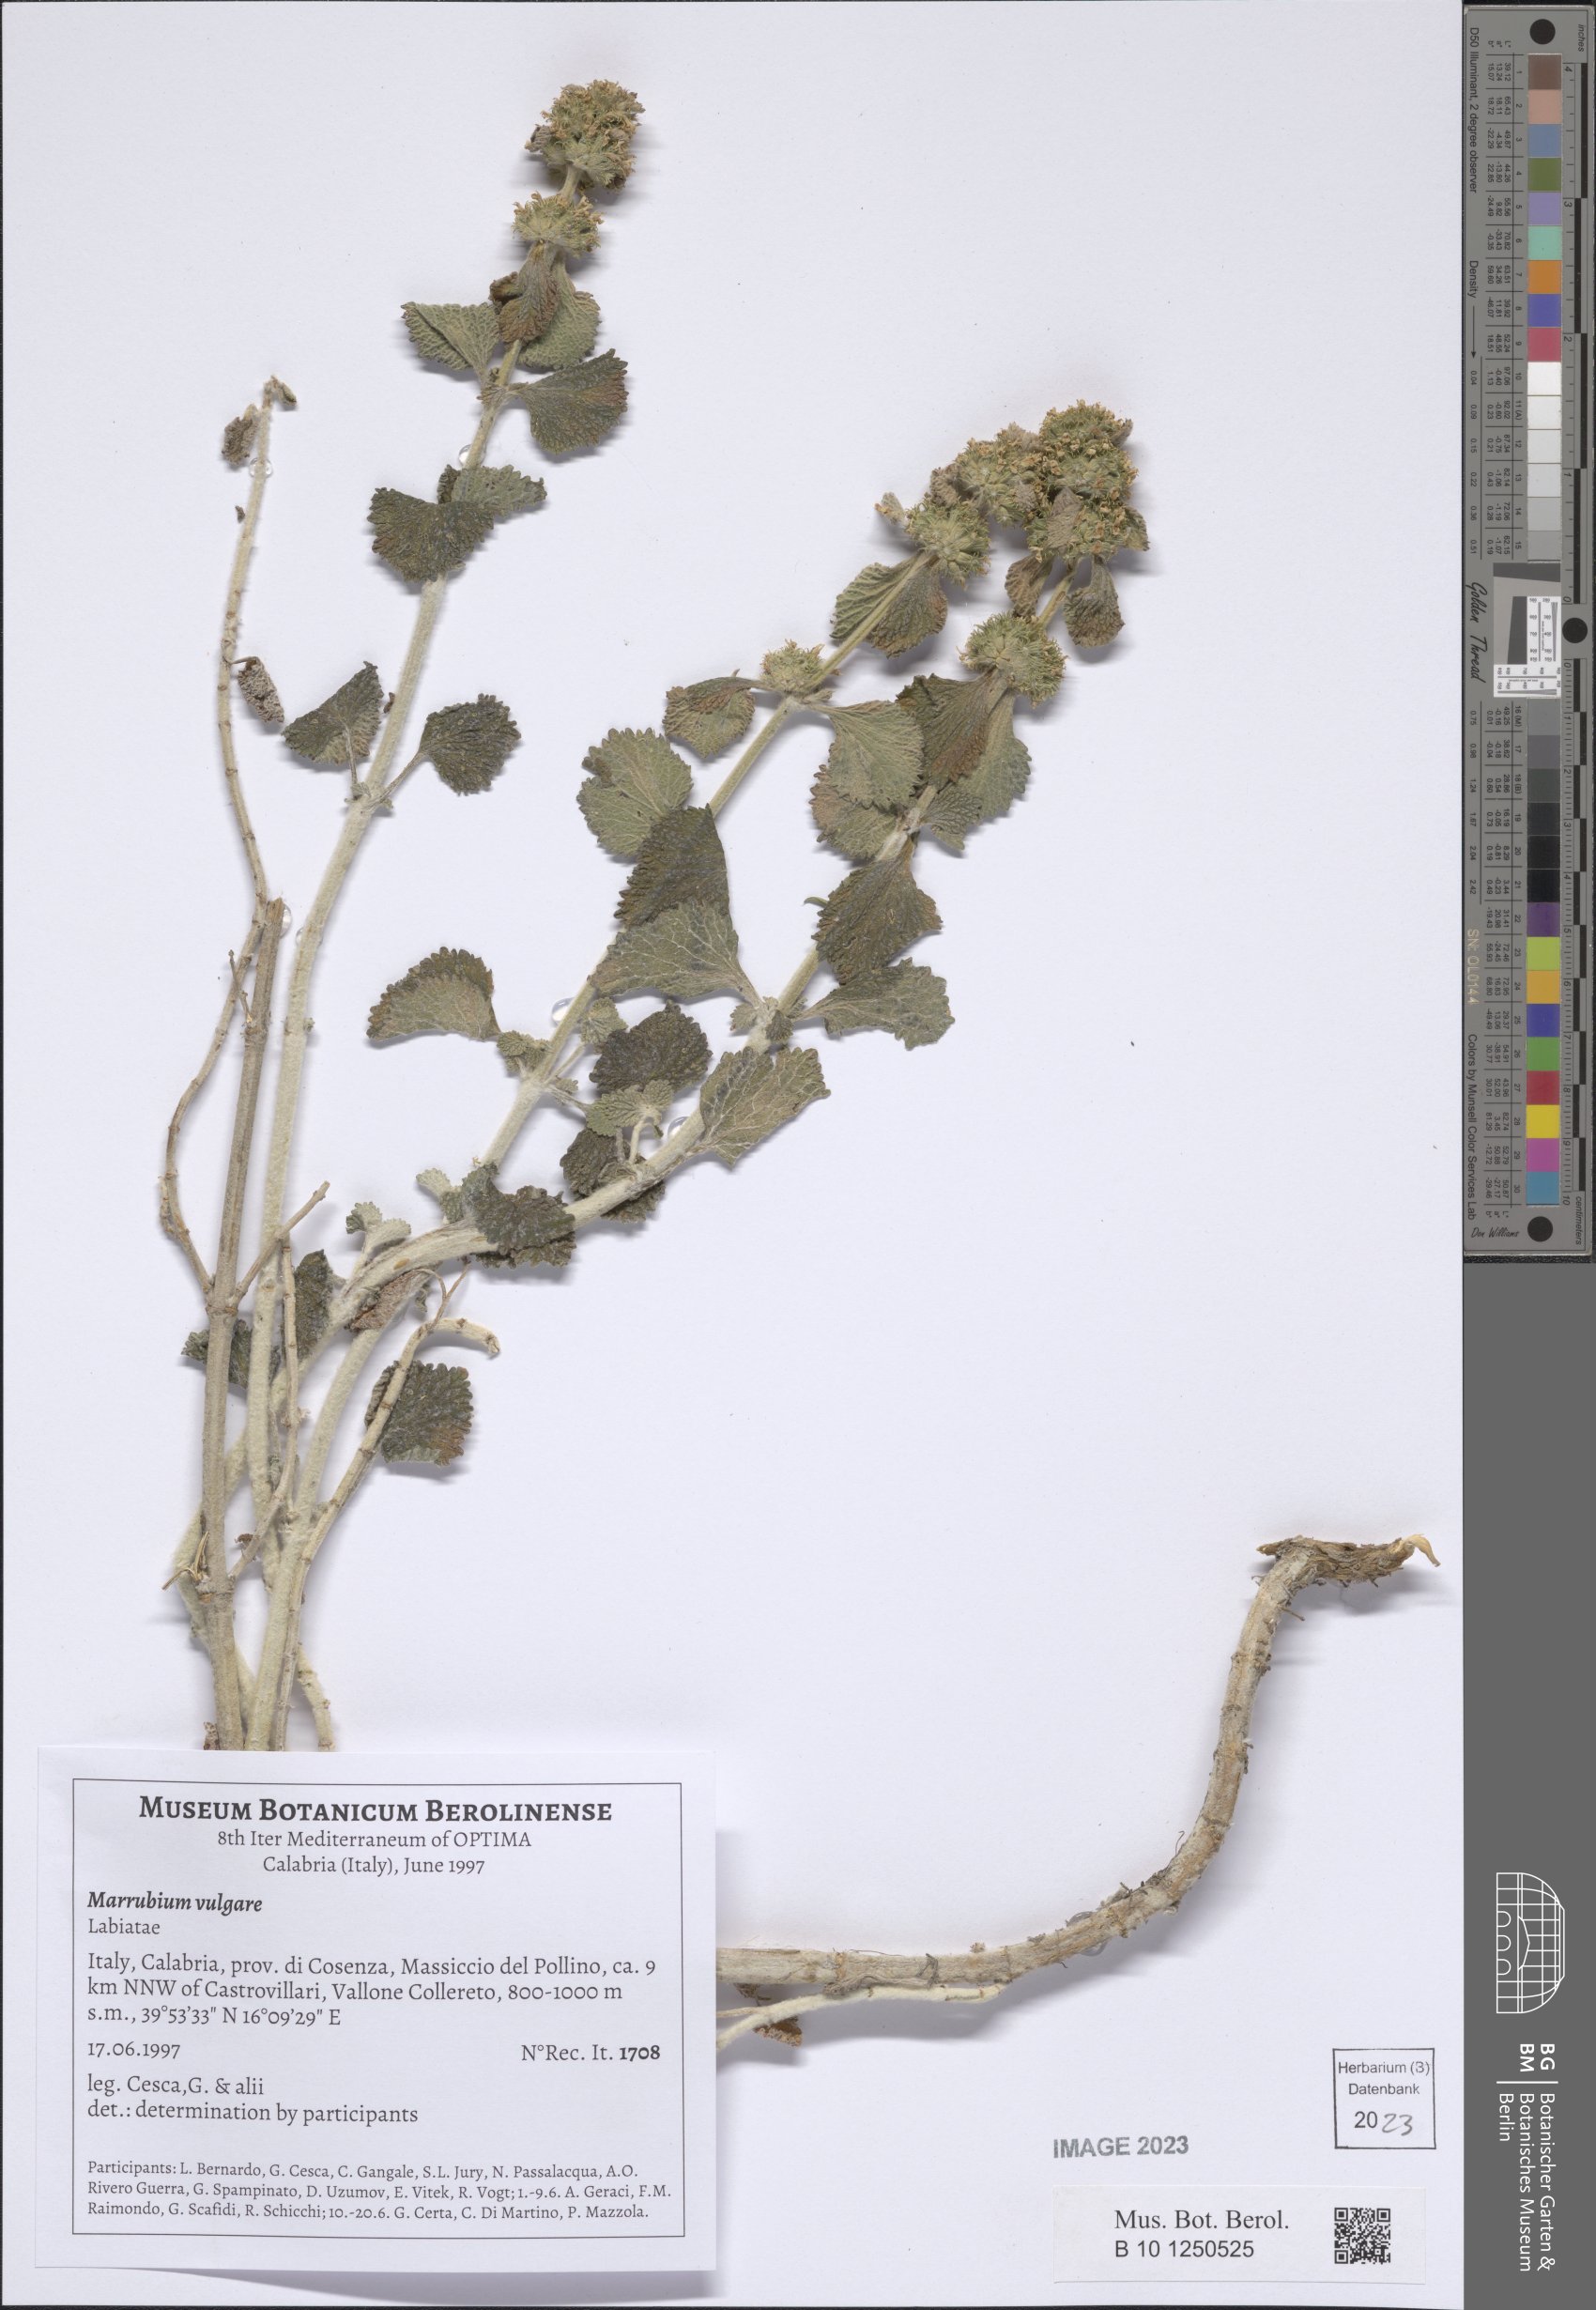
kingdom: Plantae
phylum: Tracheophyta
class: Magnoliopsida
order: Lamiales
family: Lamiaceae
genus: Marrubium
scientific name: Marrubium vulgare
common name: Horehound
